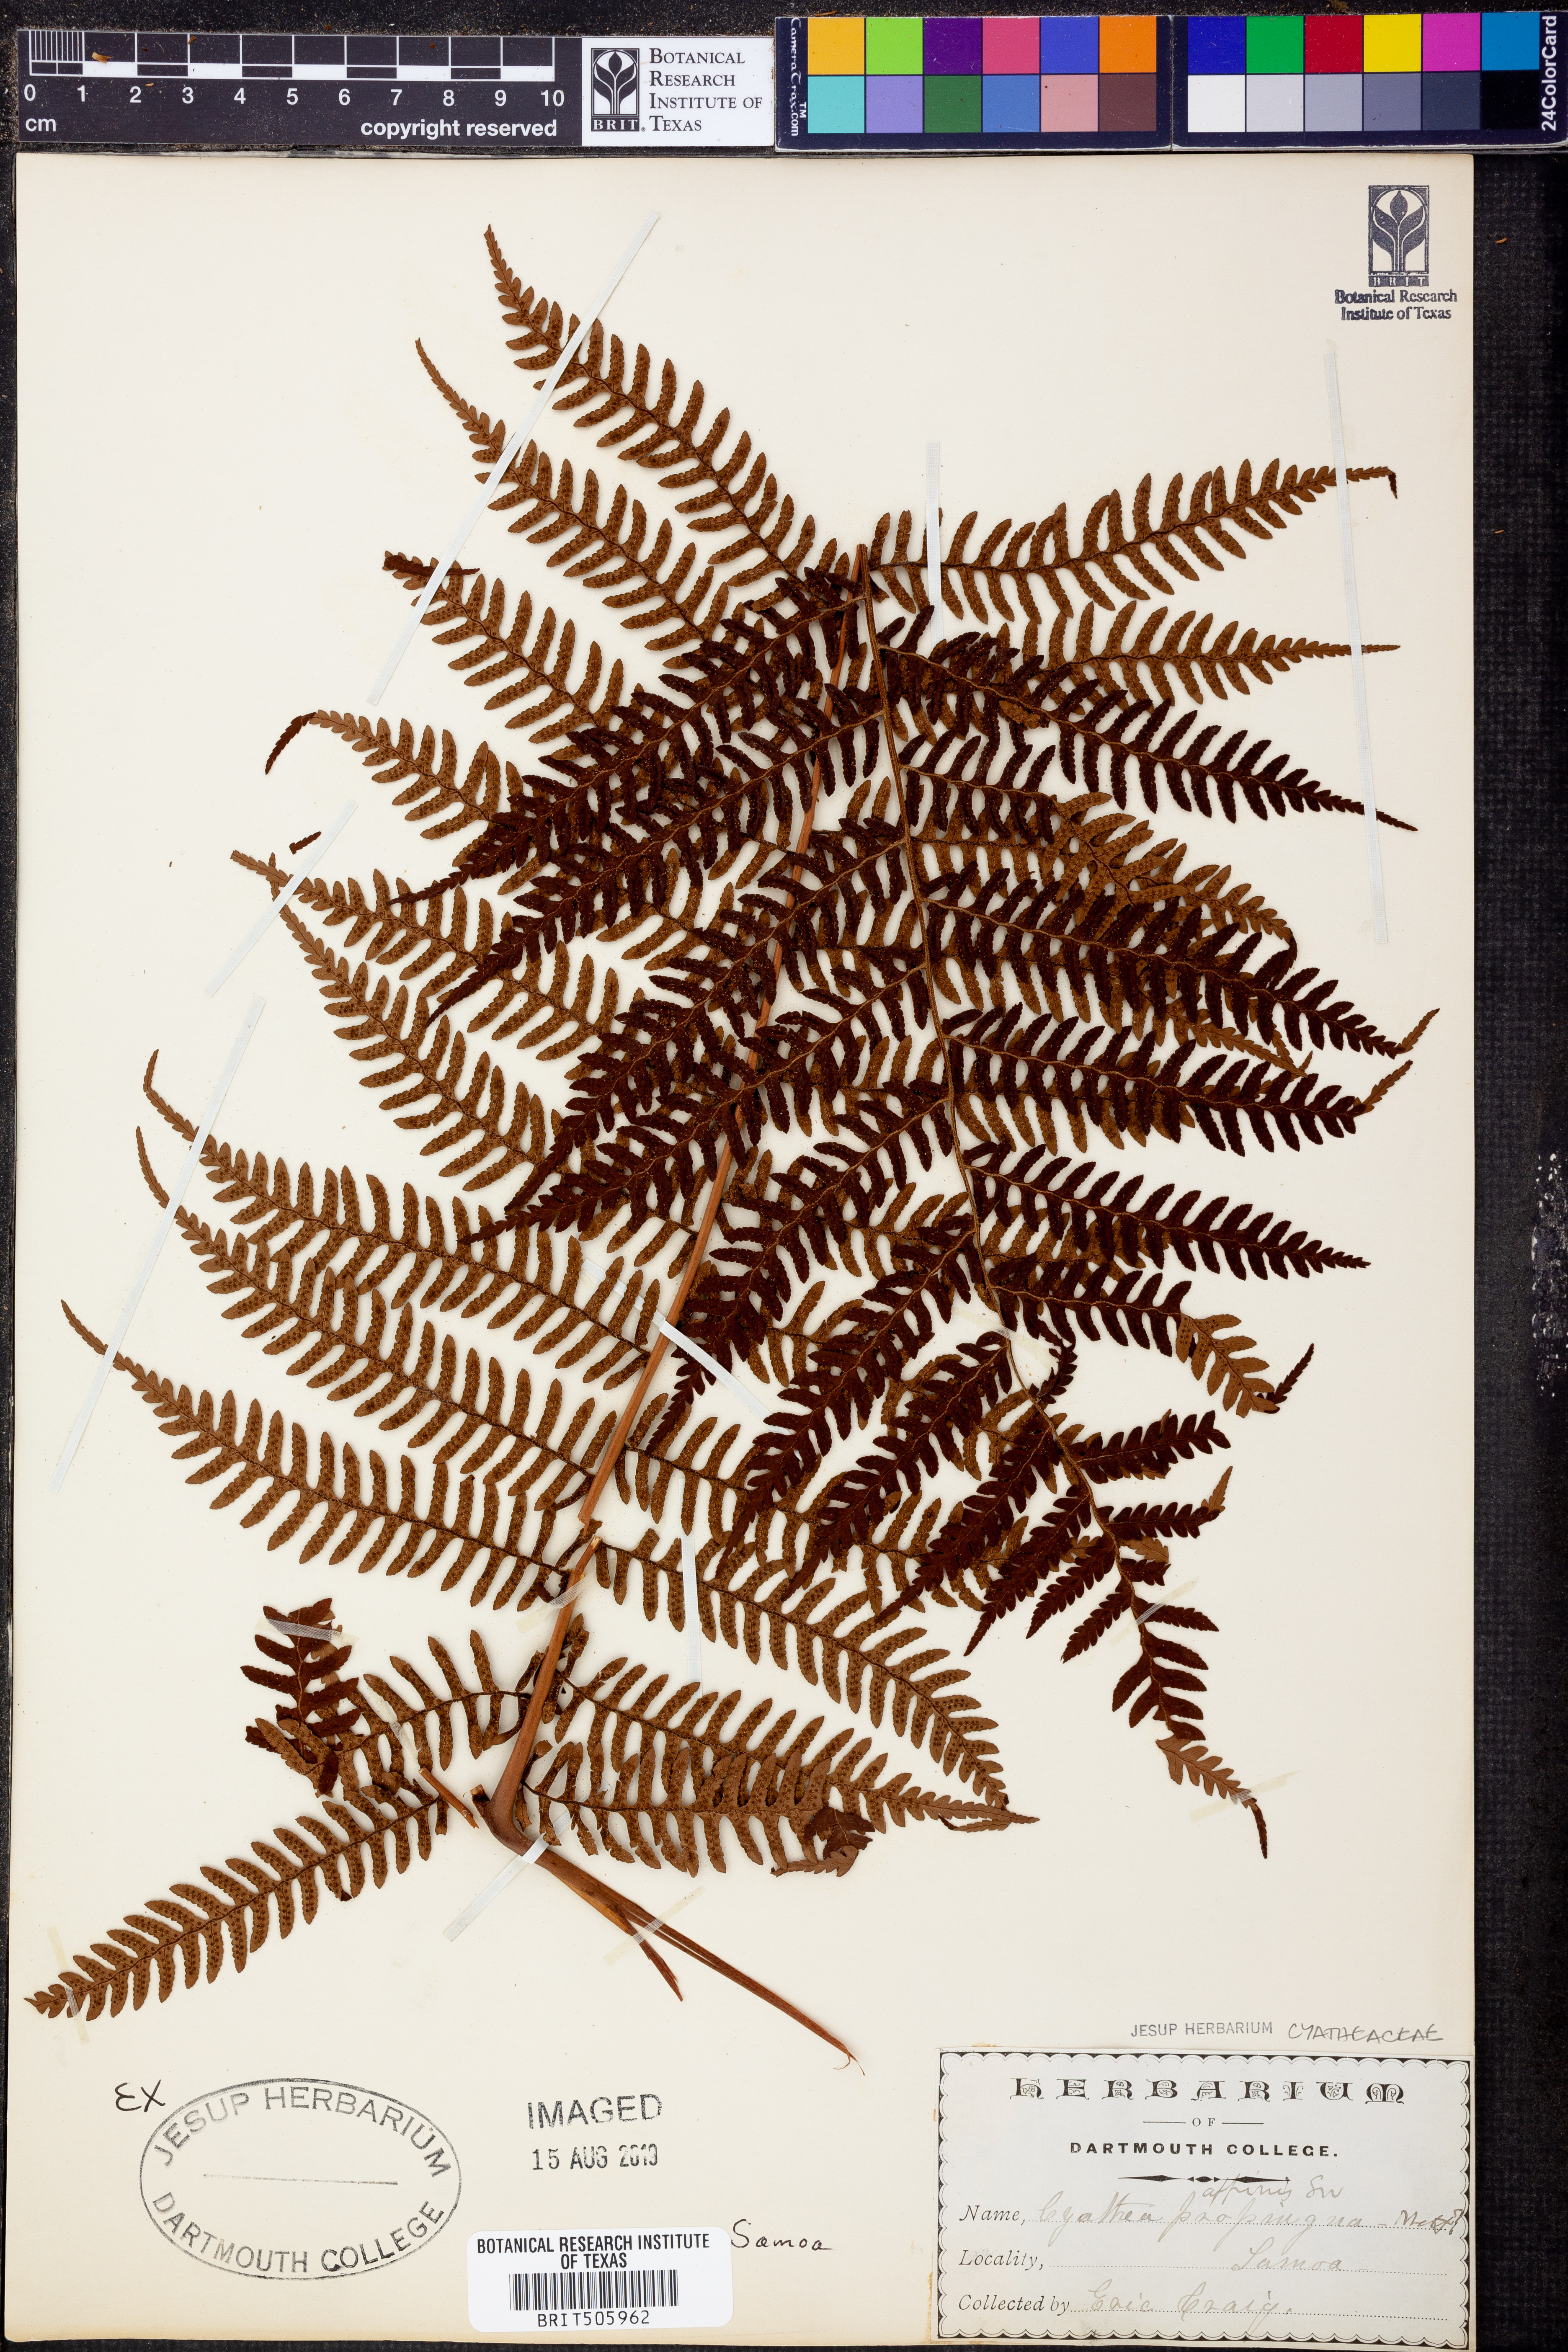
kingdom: Plantae
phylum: Tracheophyta
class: Polypodiopsida
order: Cyatheales
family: Cyatheaceae
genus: Alsophila
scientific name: Alsophila tahitensis
